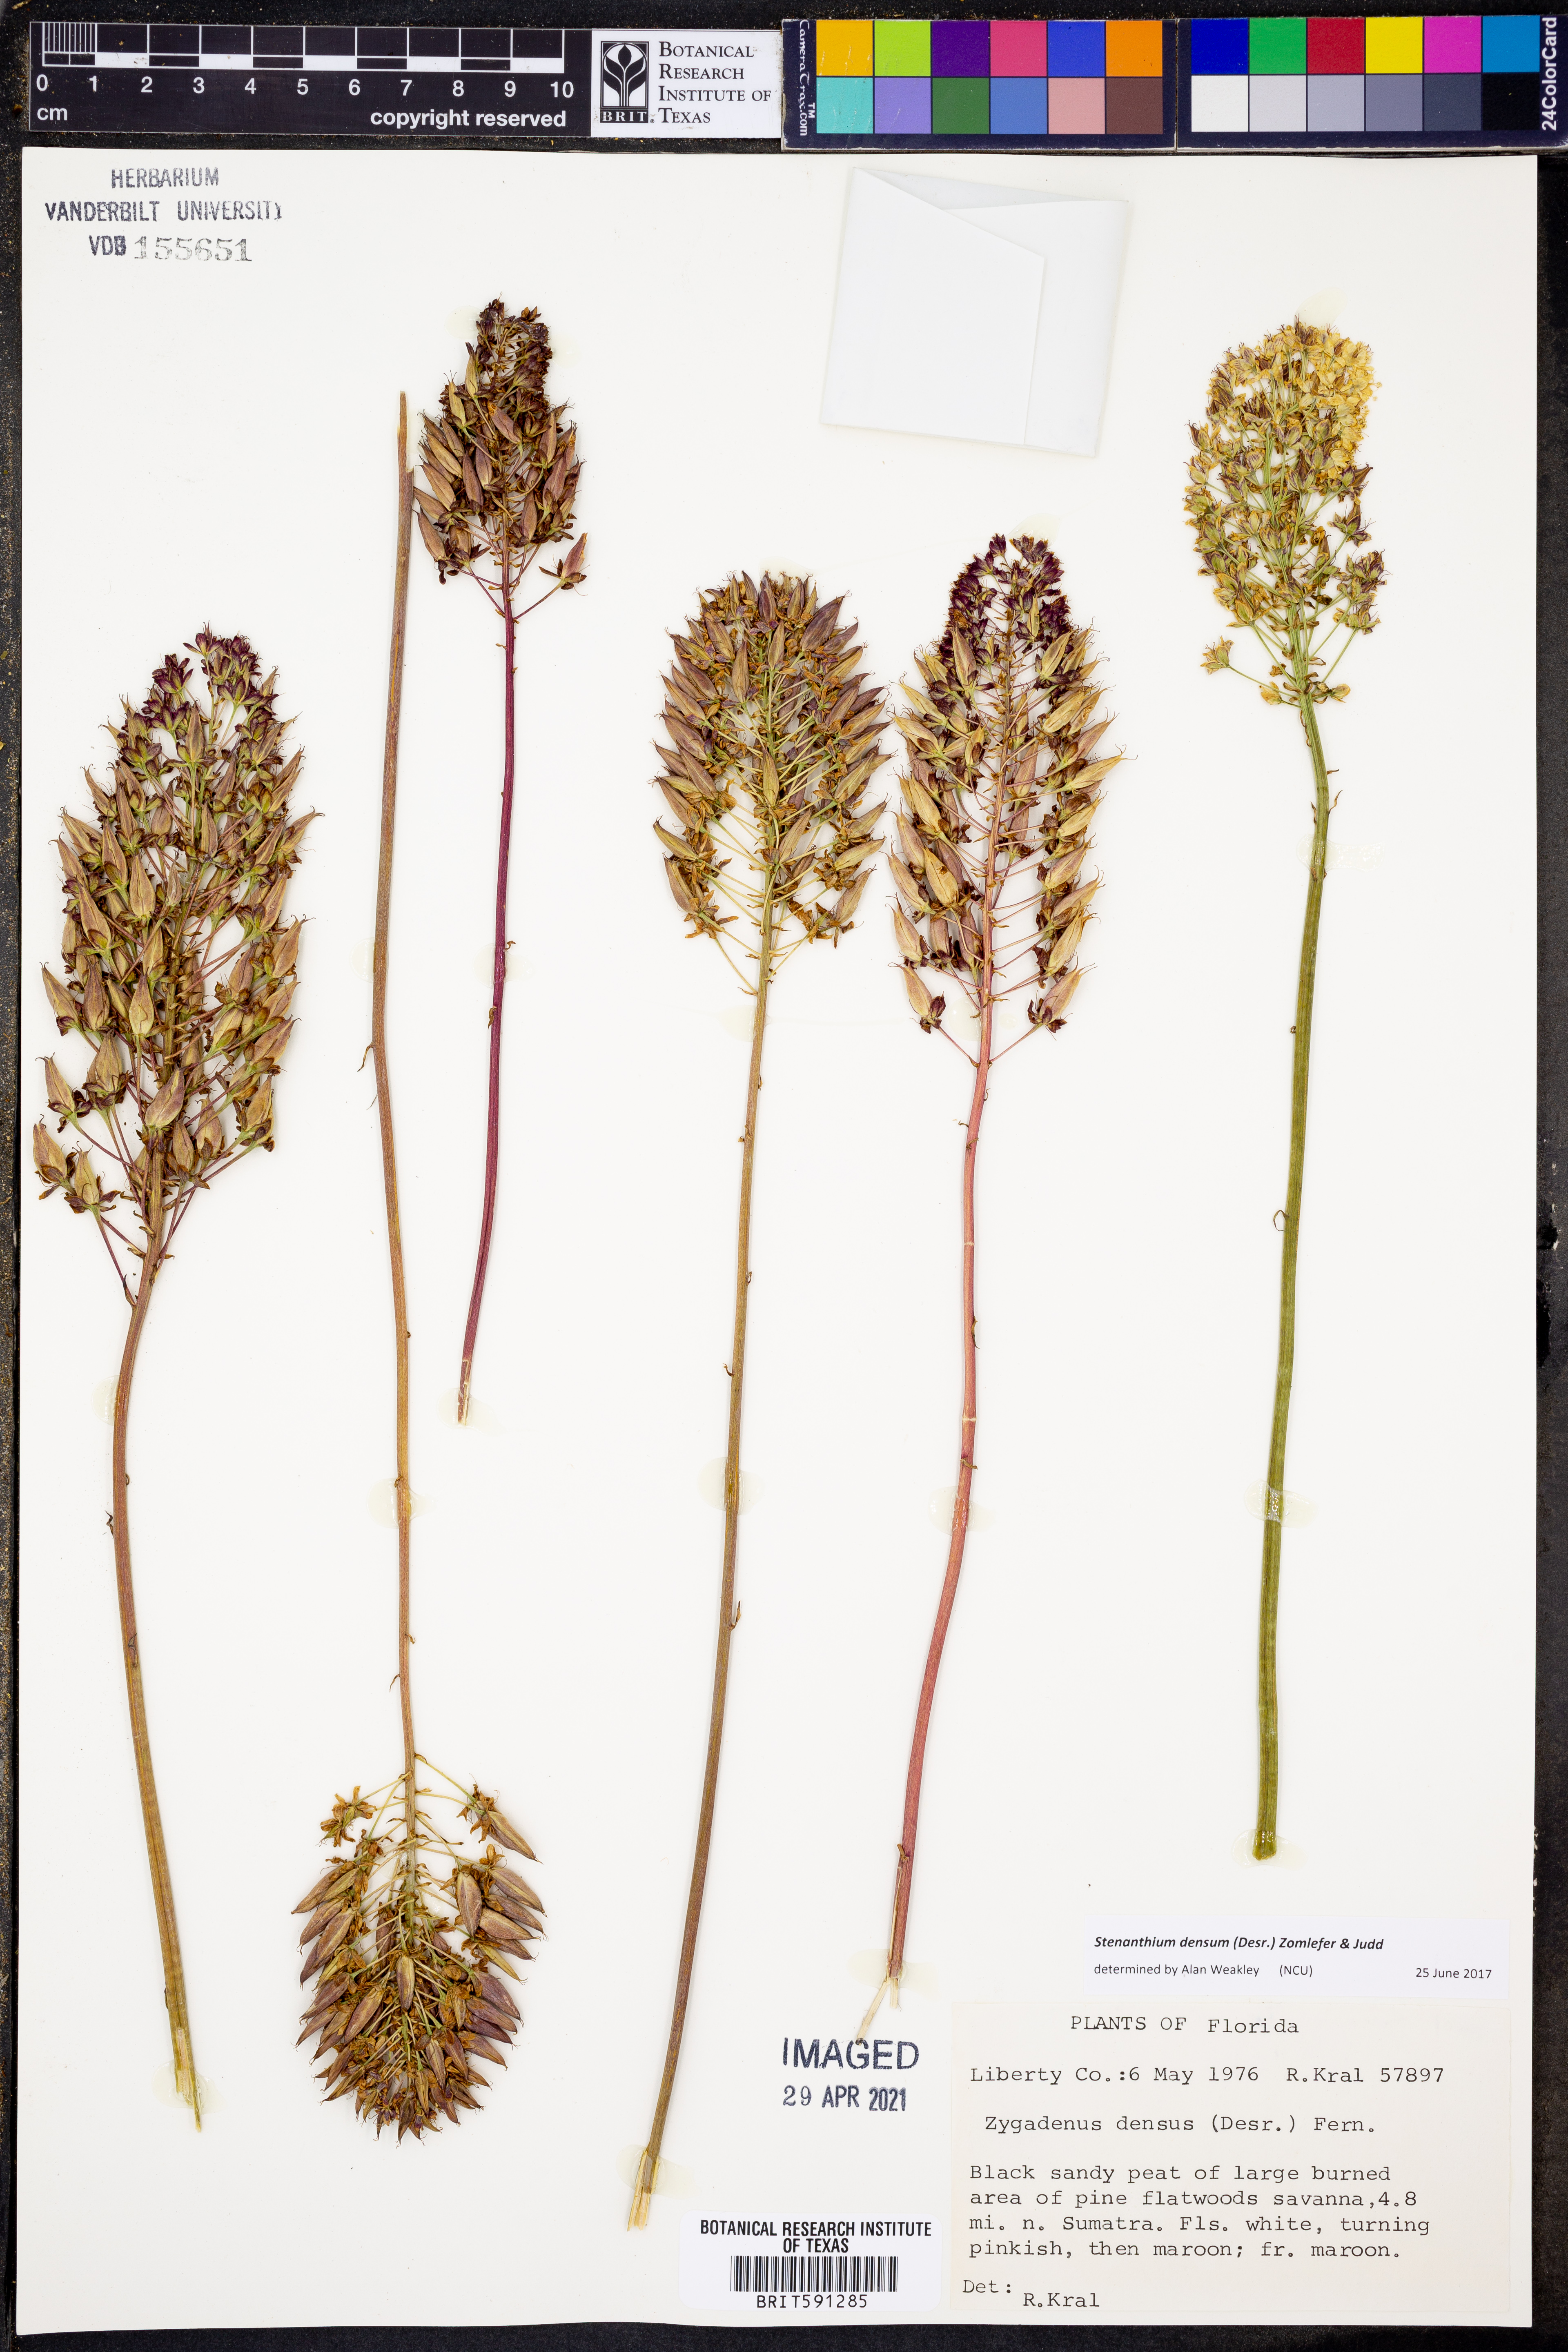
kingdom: Plantae
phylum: Tracheophyta
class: Liliopsida
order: Liliales
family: Melanthiaceae
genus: Stenanthium
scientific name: Stenanthium densum
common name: Crow-poison
